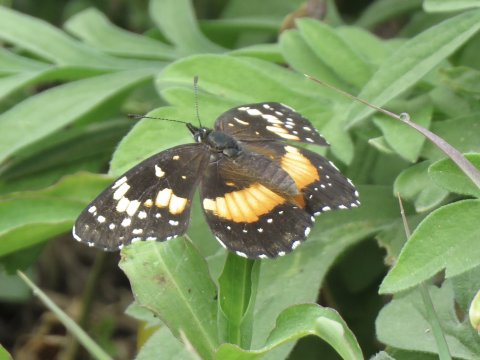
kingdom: Animalia
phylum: Arthropoda
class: Insecta
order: Lepidoptera
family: Nymphalidae
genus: Chlosyne
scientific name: Chlosyne lacinia
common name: Bordered Patch
